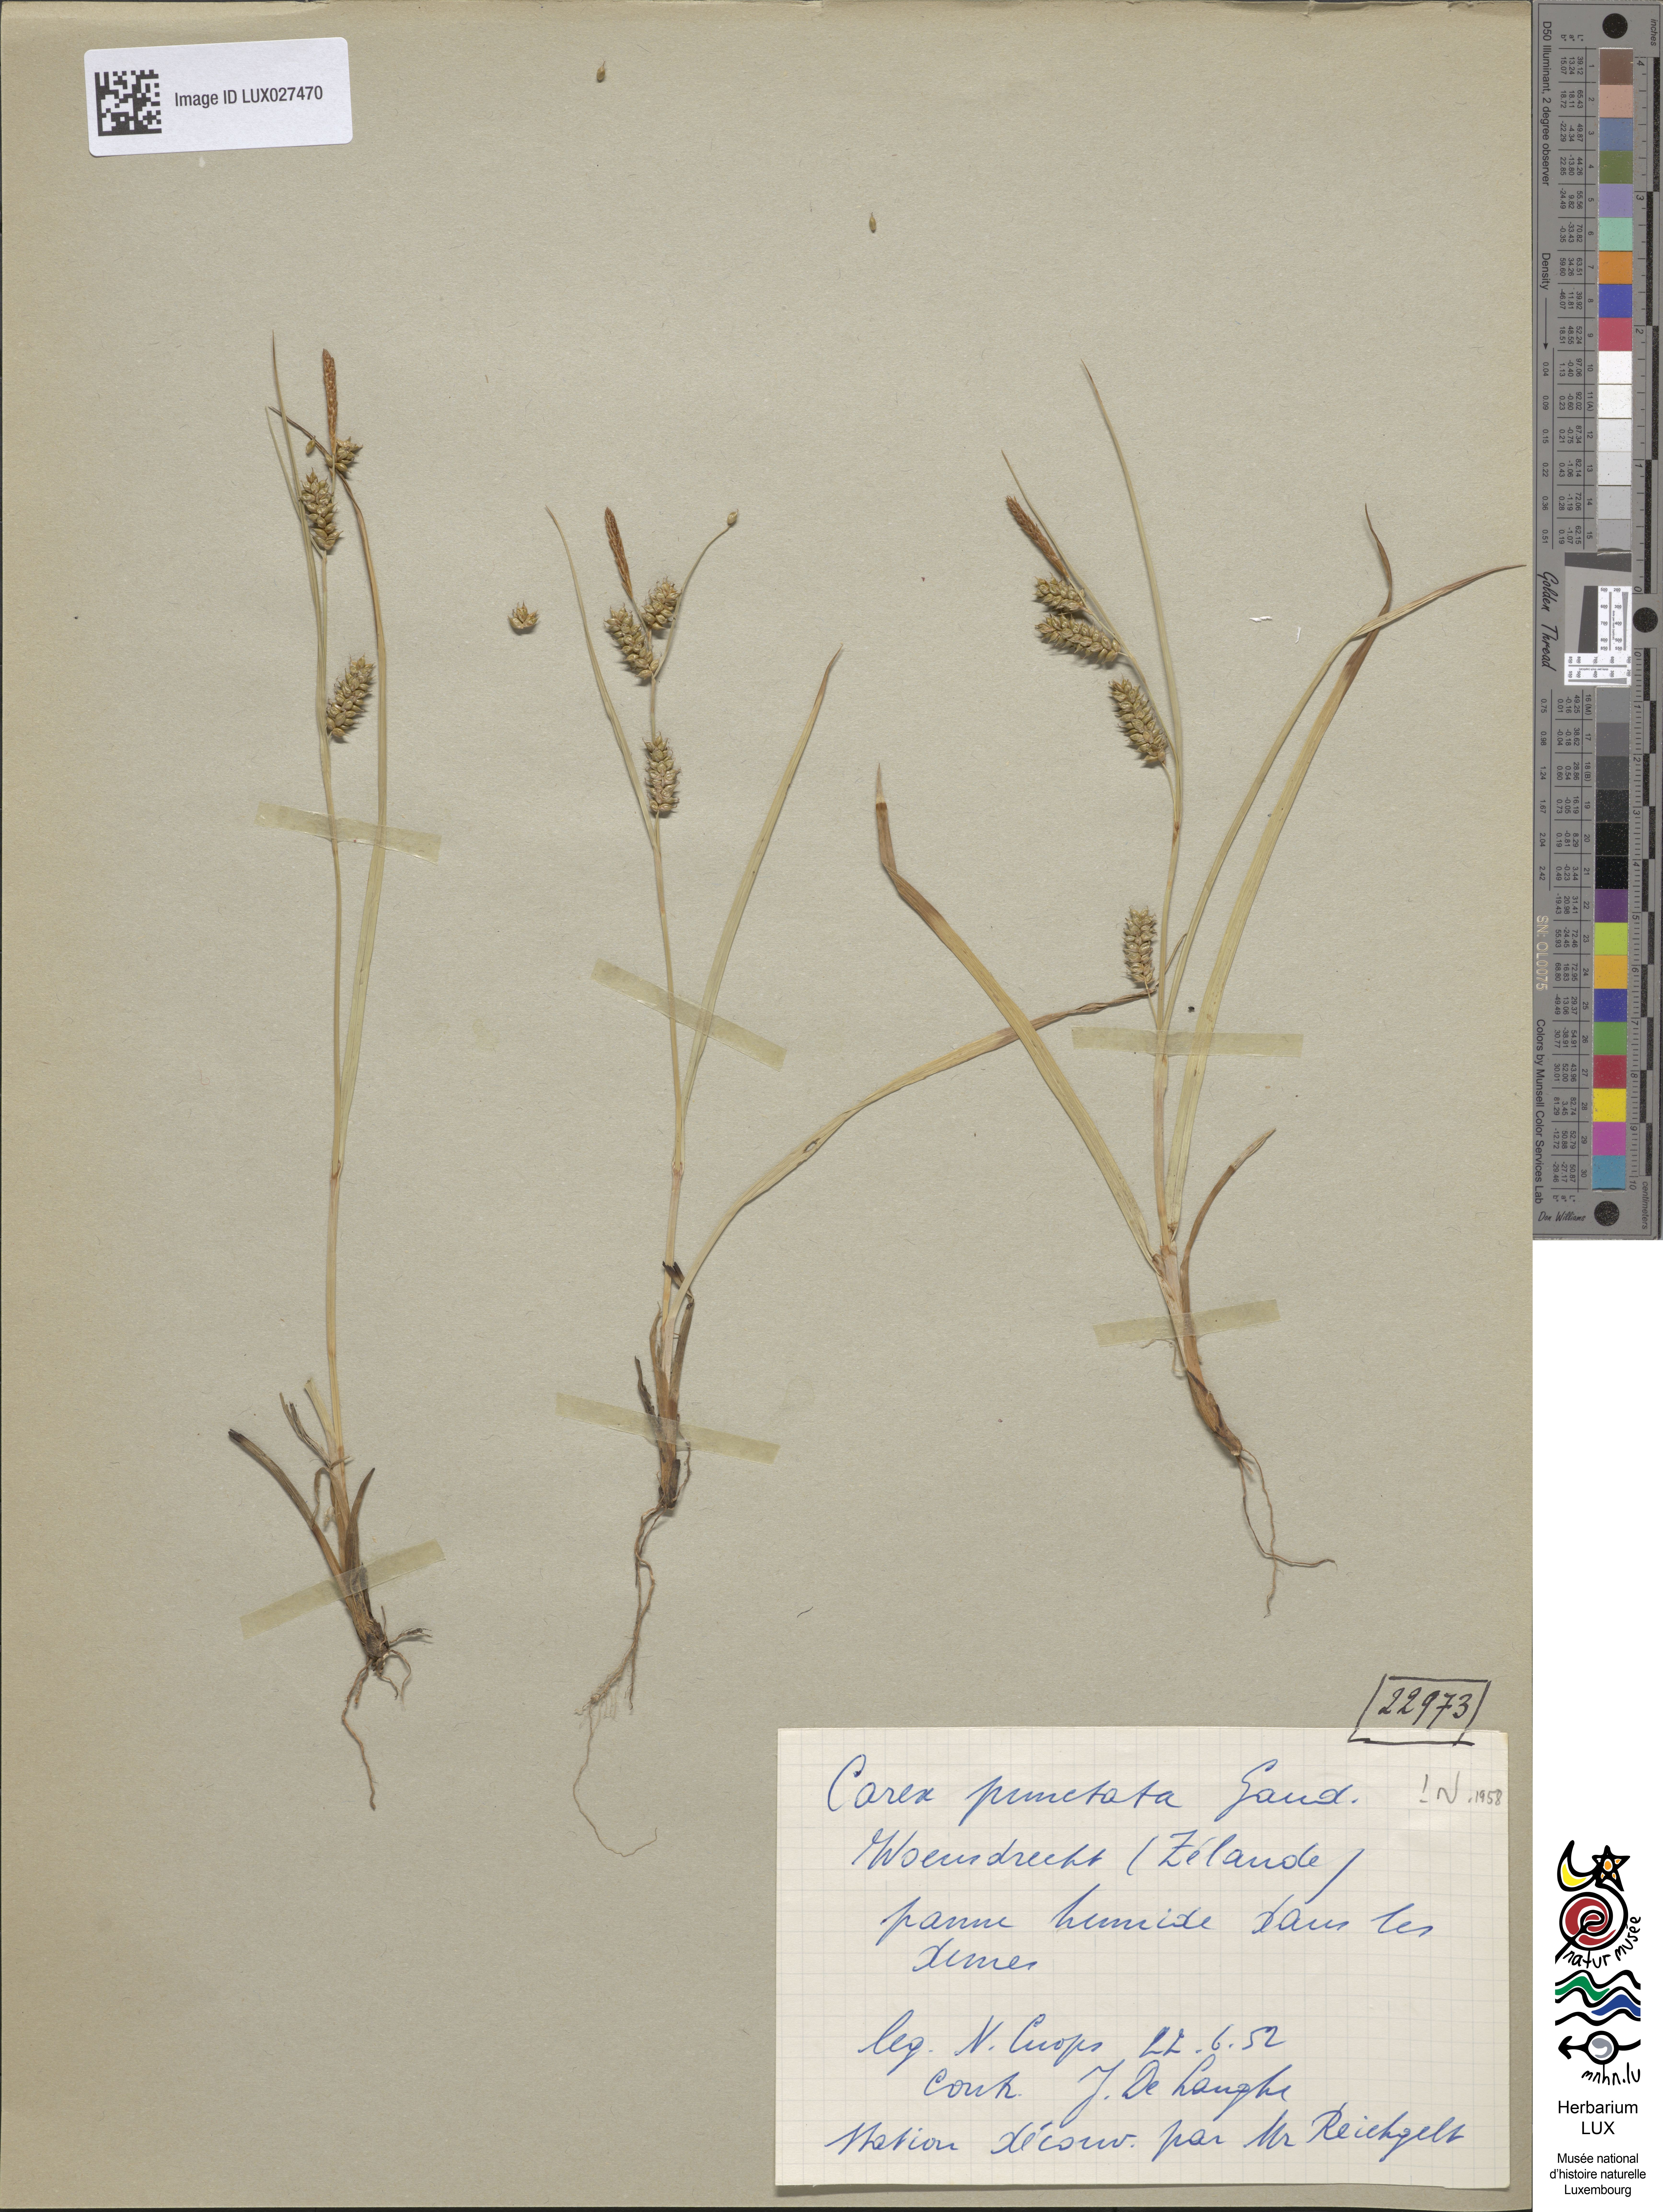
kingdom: Plantae
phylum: Tracheophyta
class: Liliopsida
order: Poales
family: Cyperaceae
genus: Carex
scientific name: Carex punctata
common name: Dotted sedge
